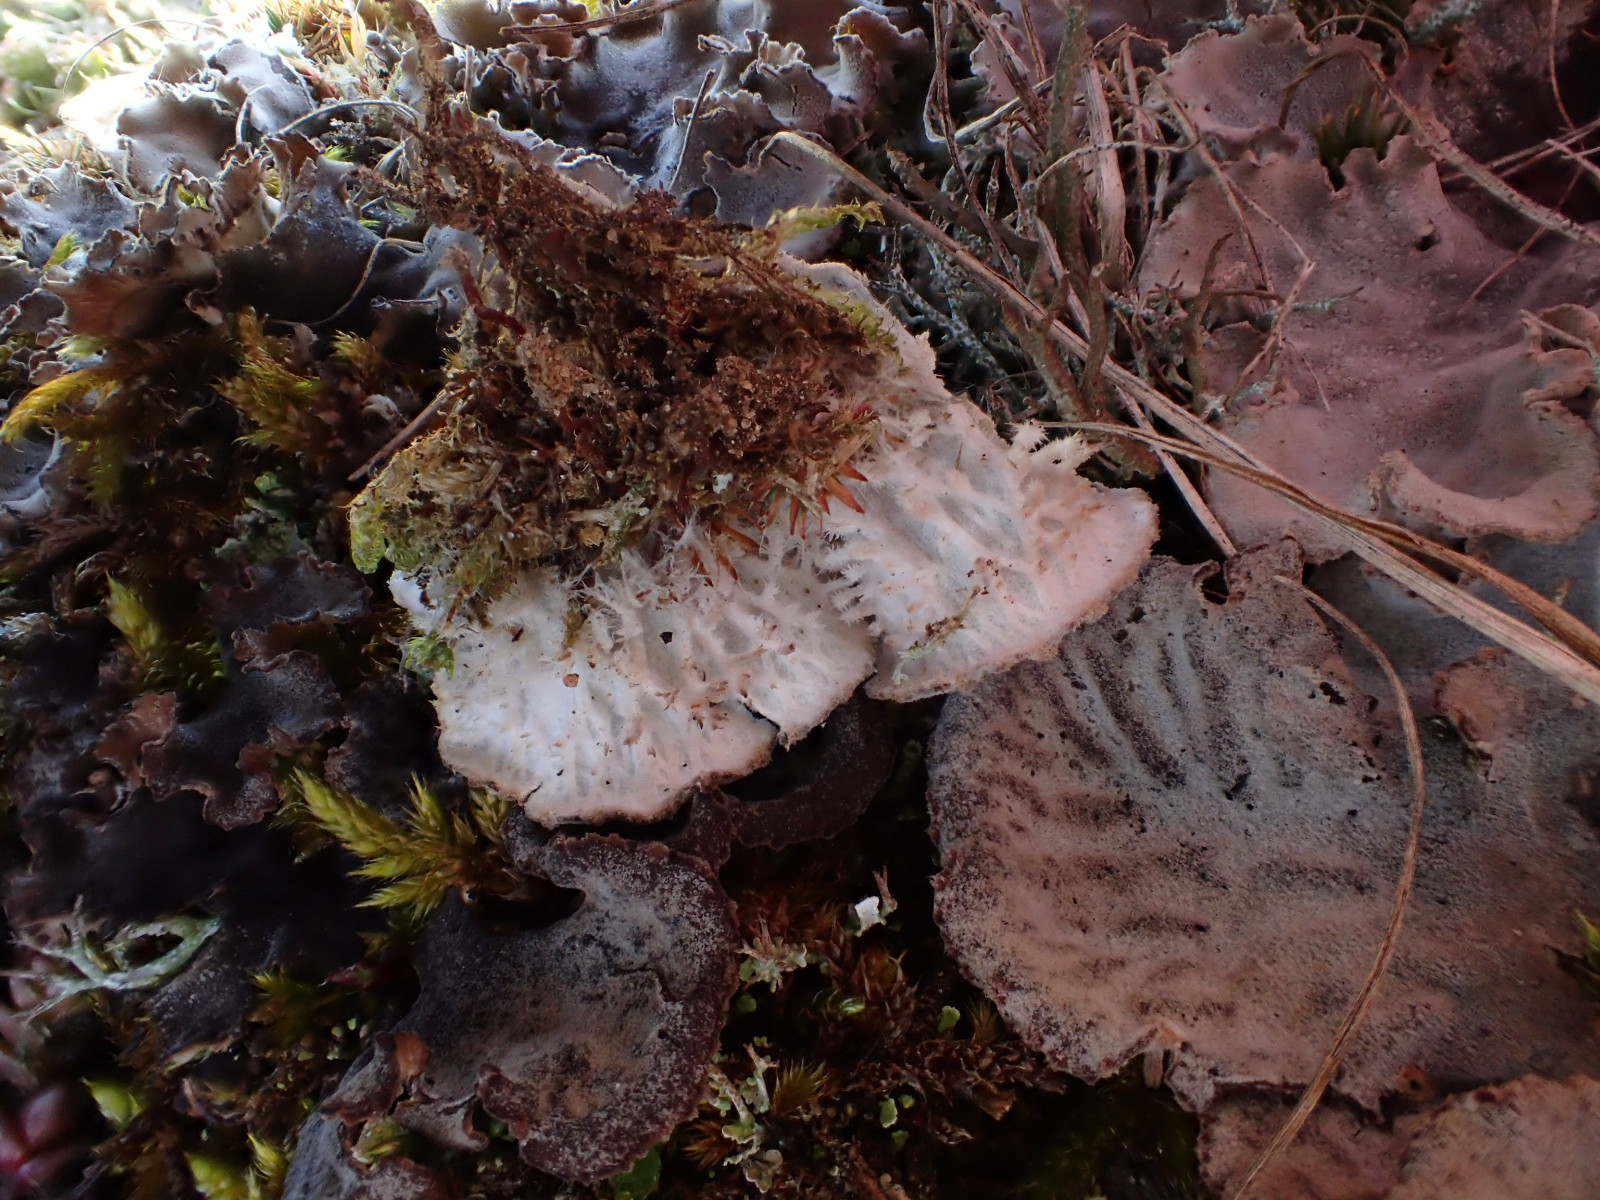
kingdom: Fungi
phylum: Ascomycota
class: Lecanoromycetes
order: Peltigerales
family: Peltigeraceae
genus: Peltigera
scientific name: Peltigera canina
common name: hunde-skjoldlav
